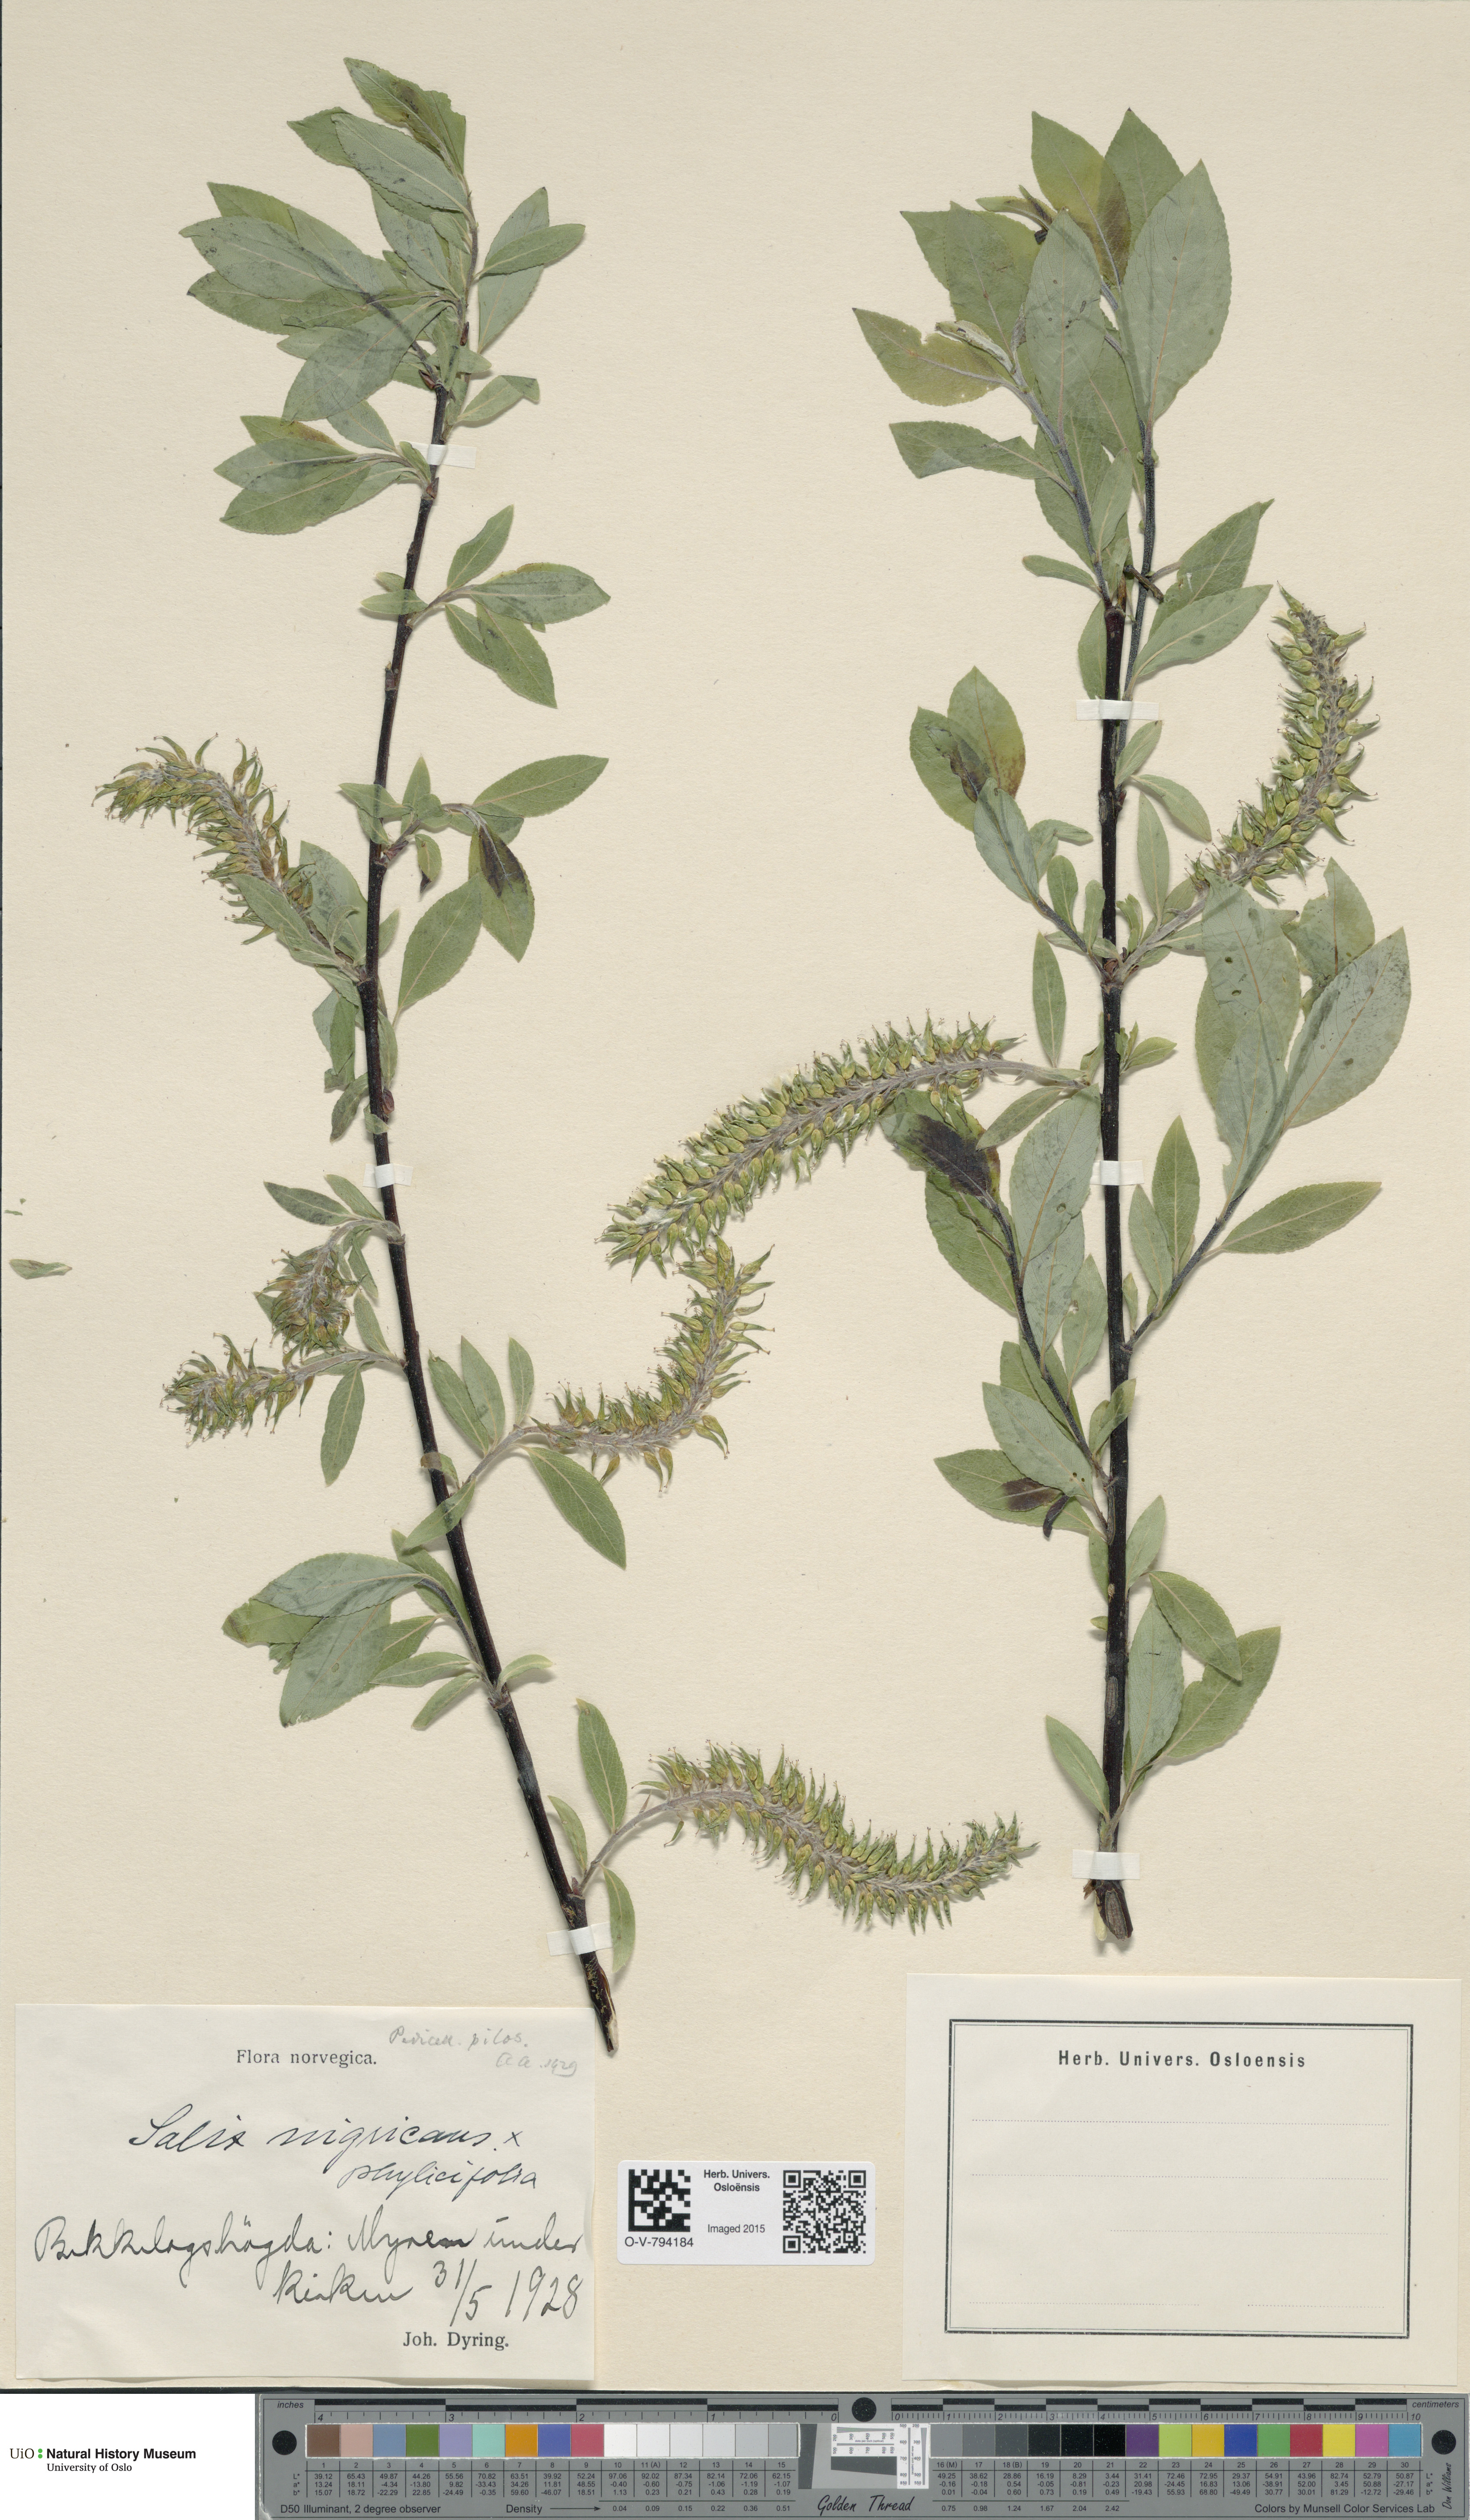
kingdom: Plantae
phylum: Tracheophyta
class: Magnoliopsida
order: Malpighiales
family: Salicaceae
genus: Salix
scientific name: Salix
